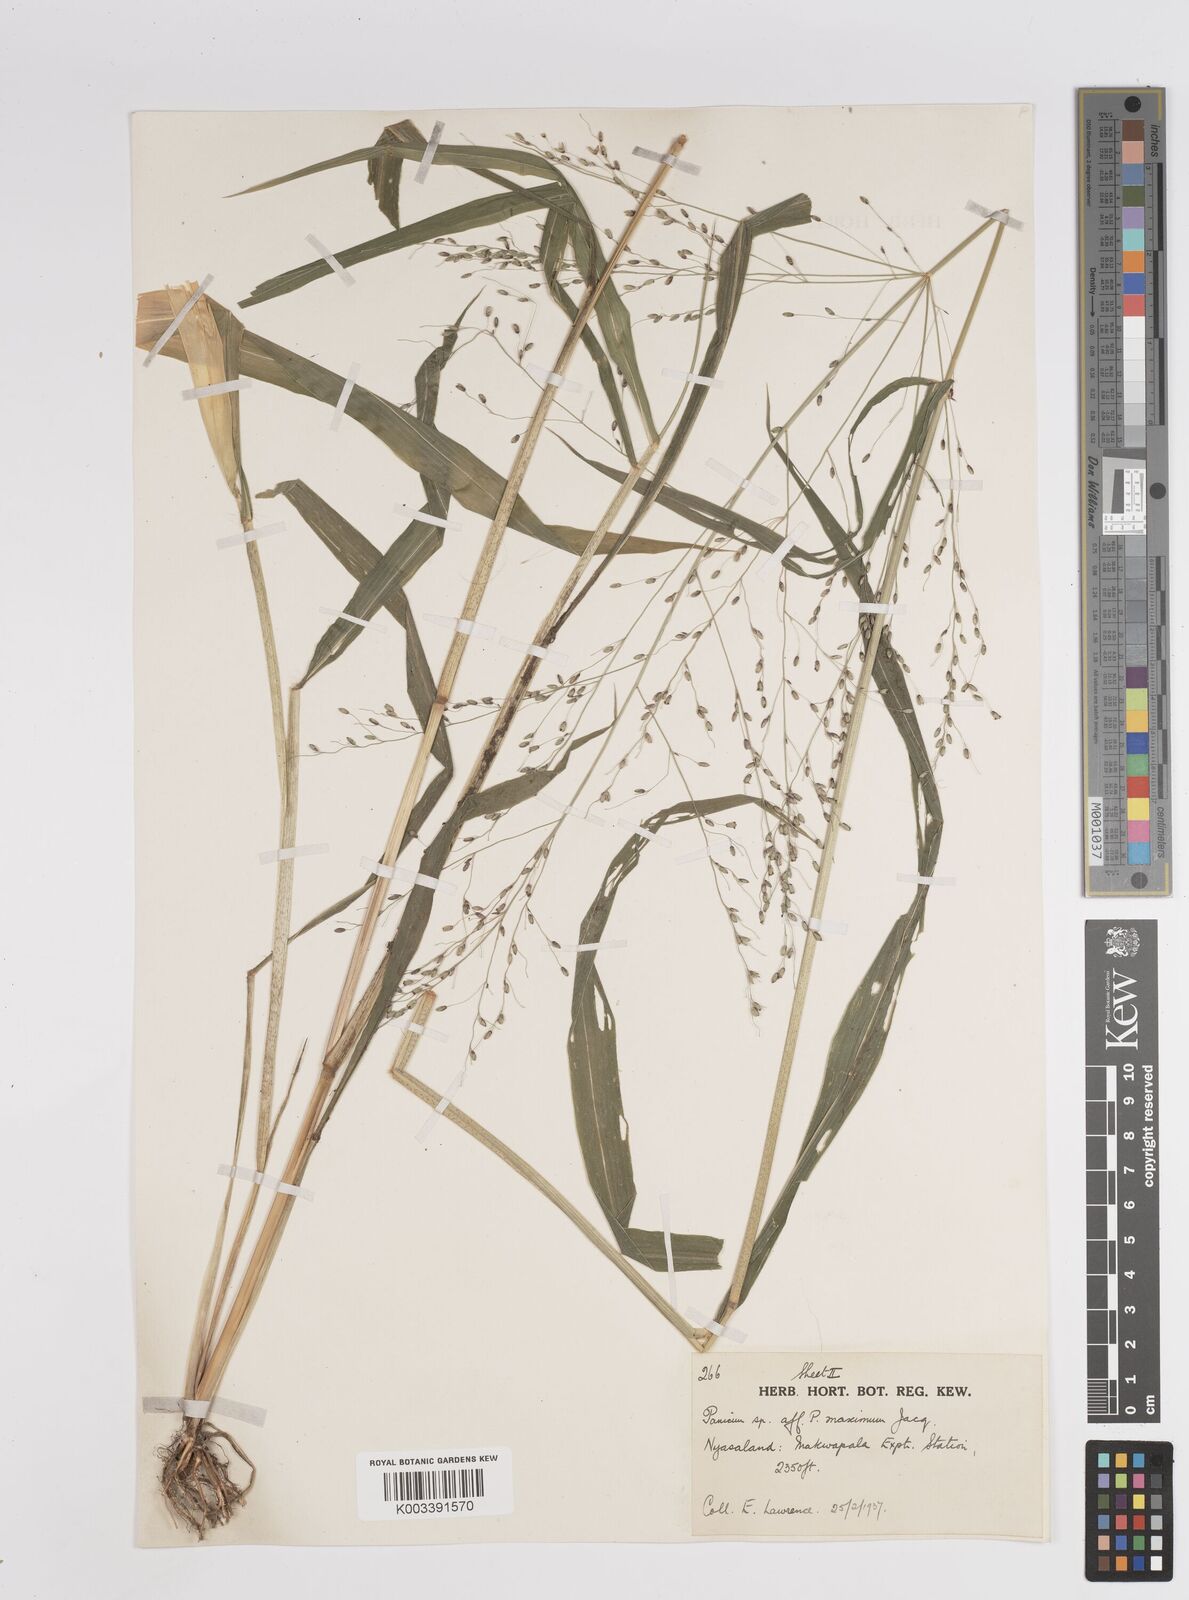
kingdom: Plantae
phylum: Tracheophyta
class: Liliopsida
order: Poales
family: Poaceae
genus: Megathyrsus
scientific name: Megathyrsus maximus
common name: Guineagrass
